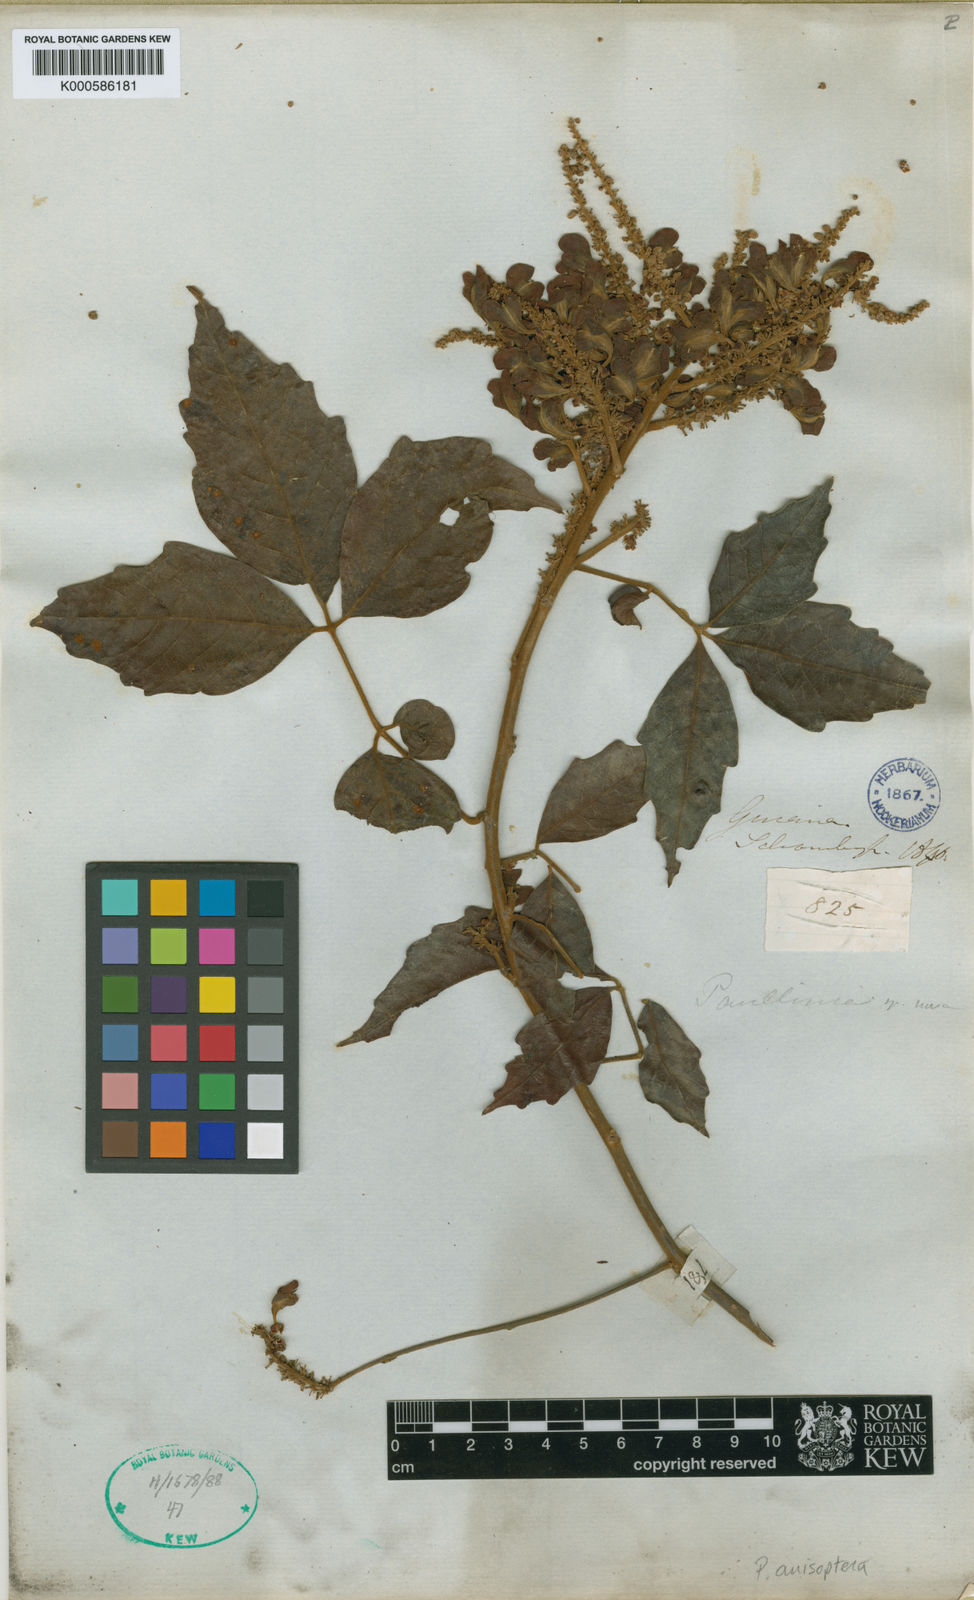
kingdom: Plantae
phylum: Tracheophyta
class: Magnoliopsida
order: Sapindales
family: Sapindaceae
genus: Paullinia
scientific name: Paullinia anisoptera
